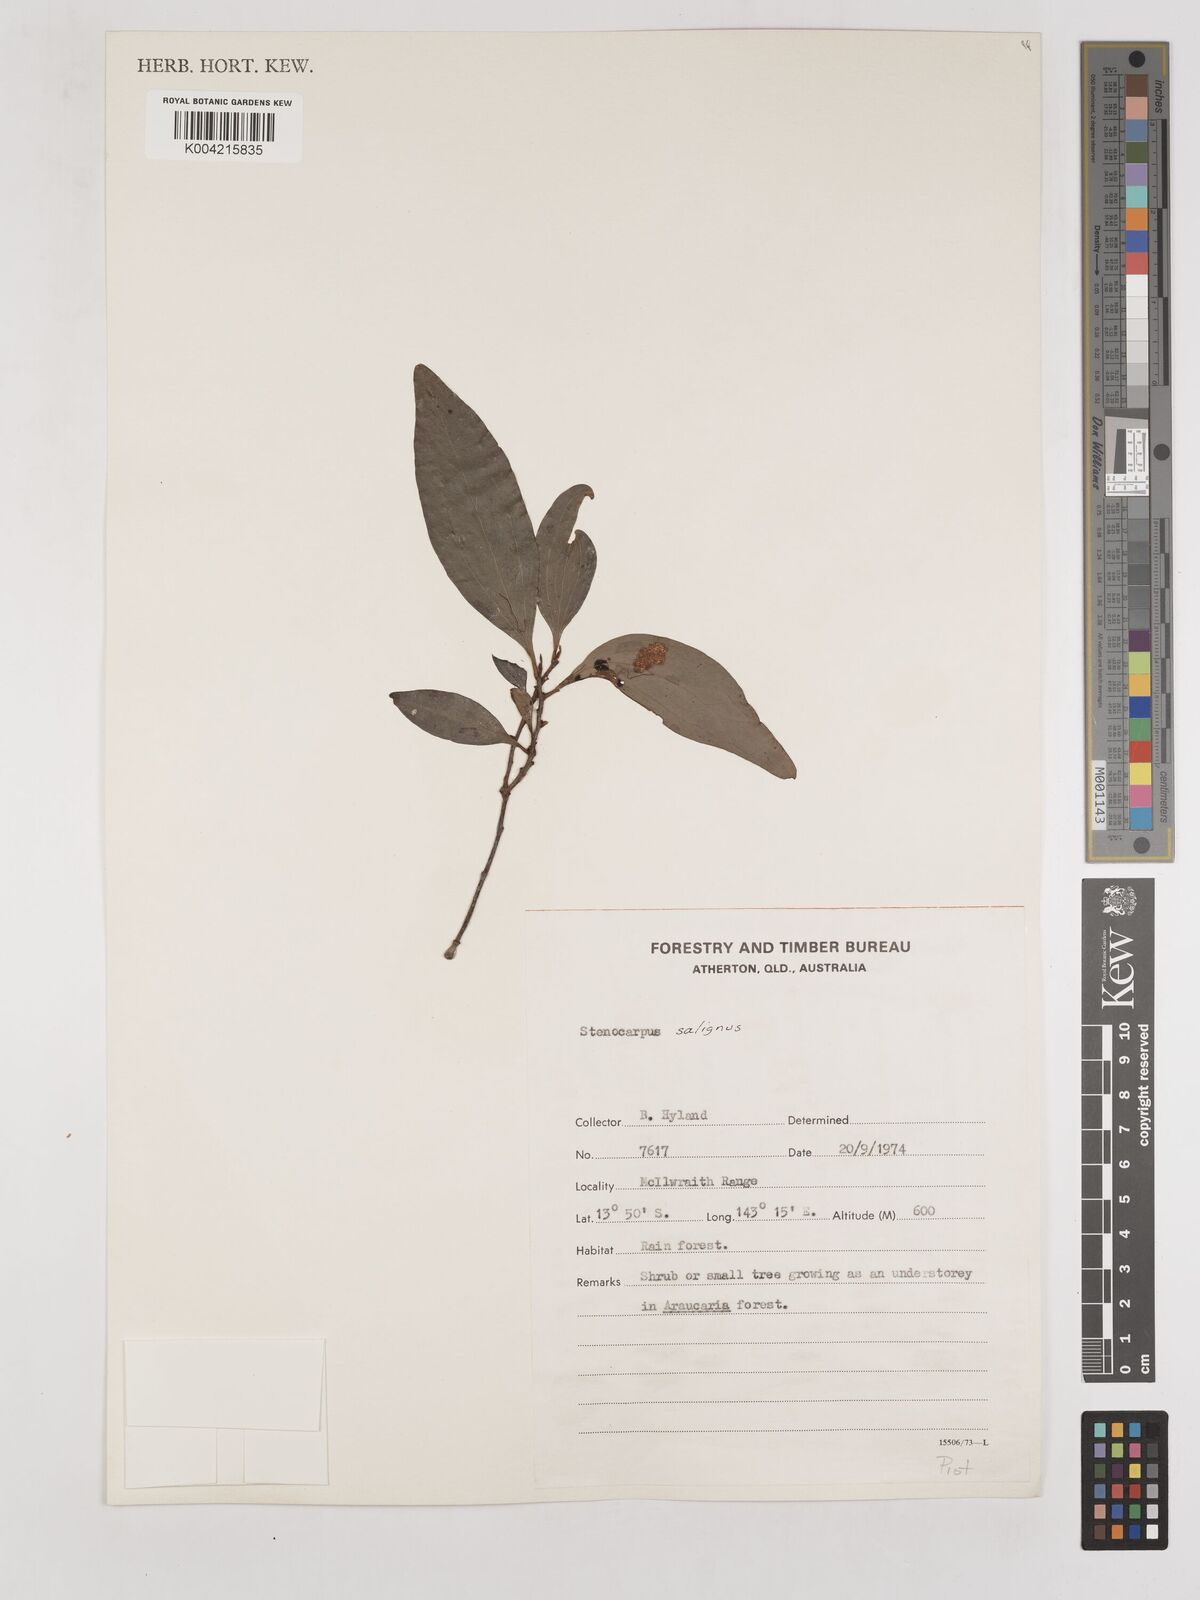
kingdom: Plantae
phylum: Tracheophyta
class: Magnoliopsida
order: Proteales
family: Proteaceae
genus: Stenocarpus
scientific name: Stenocarpus salignus
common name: Red silky-oak
